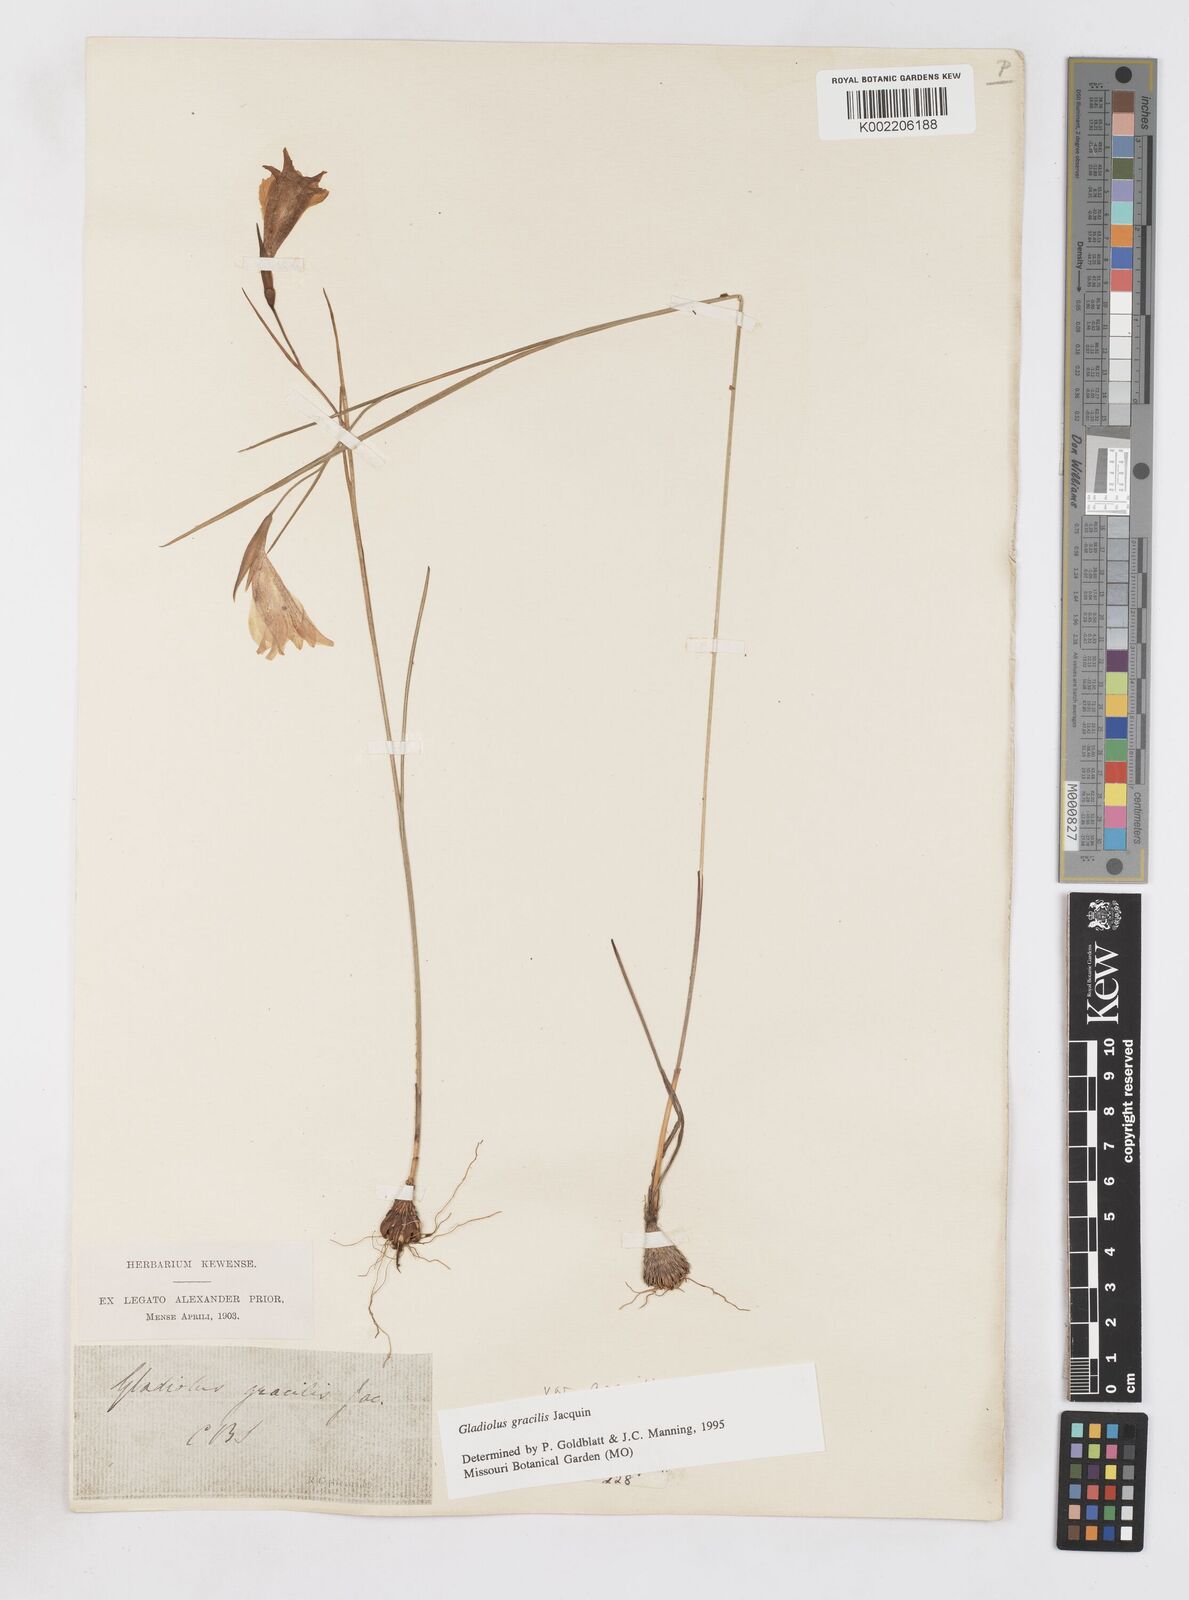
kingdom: Plantae
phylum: Tracheophyta
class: Liliopsida
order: Asparagales
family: Iridaceae
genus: Gladiolus
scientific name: Gladiolus gracilis
